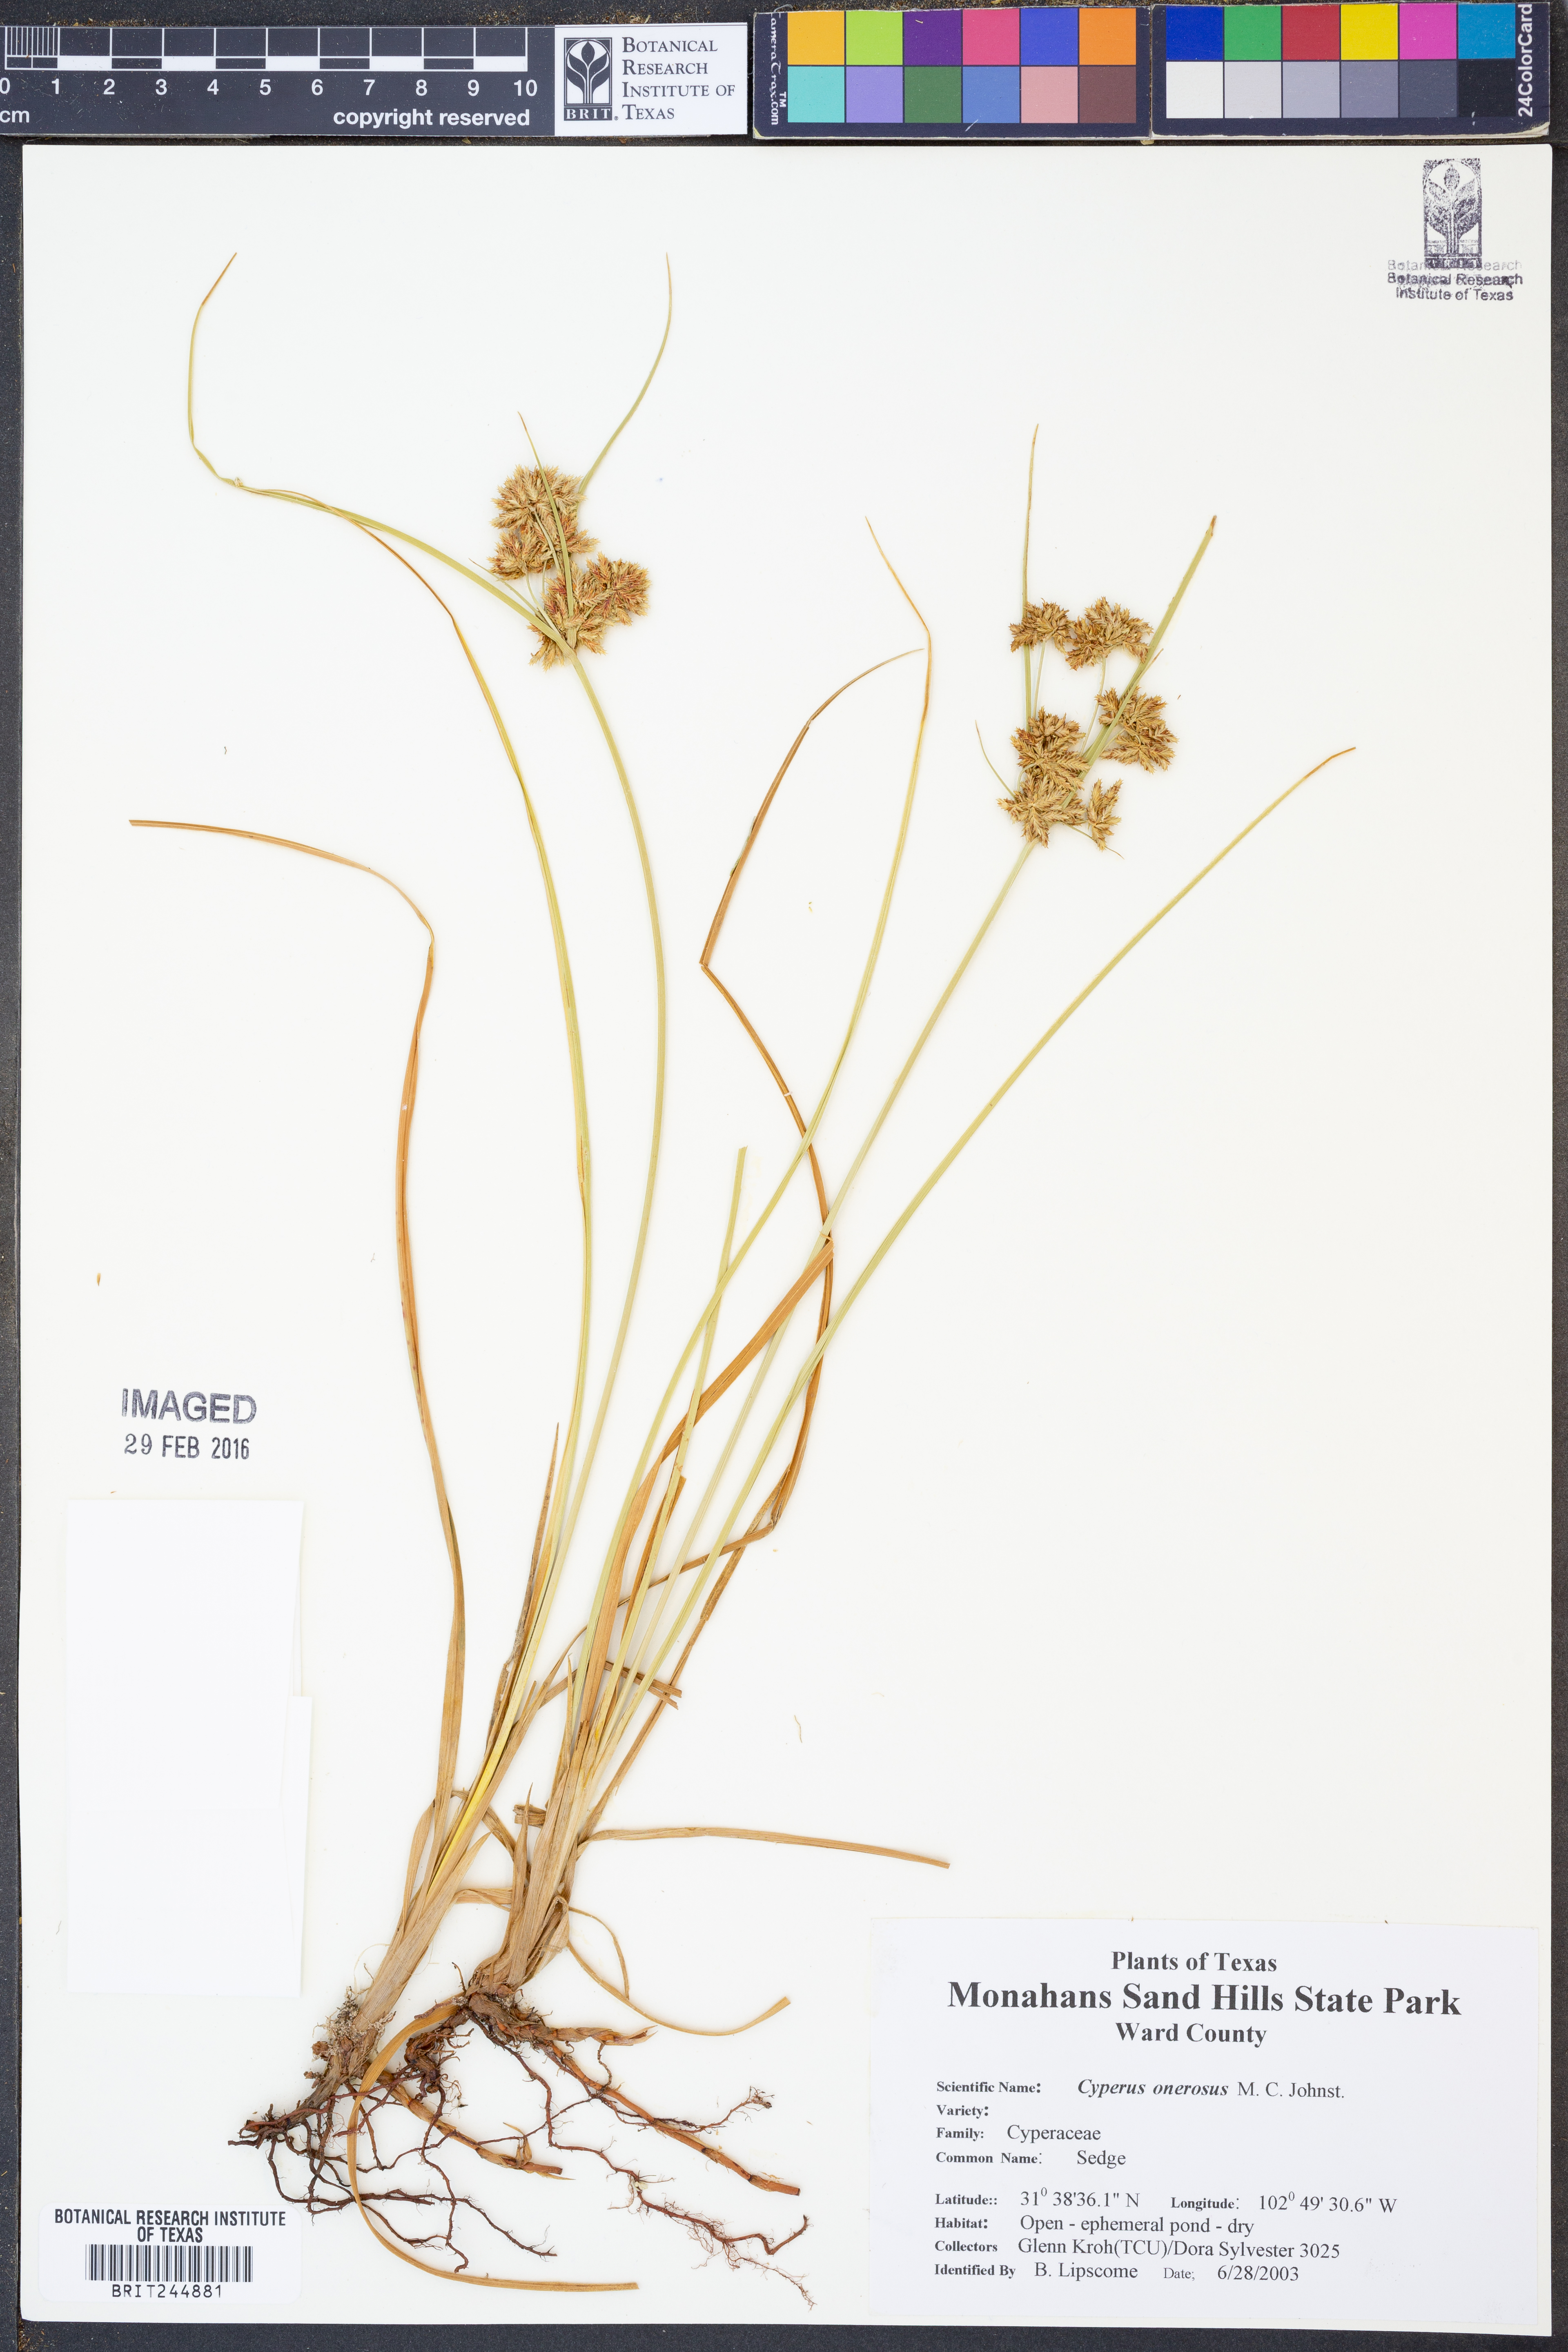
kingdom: Plantae
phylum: Tracheophyta
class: Liliopsida
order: Poales
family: Cyperaceae
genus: Cyperus
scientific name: Cyperus onerosus
